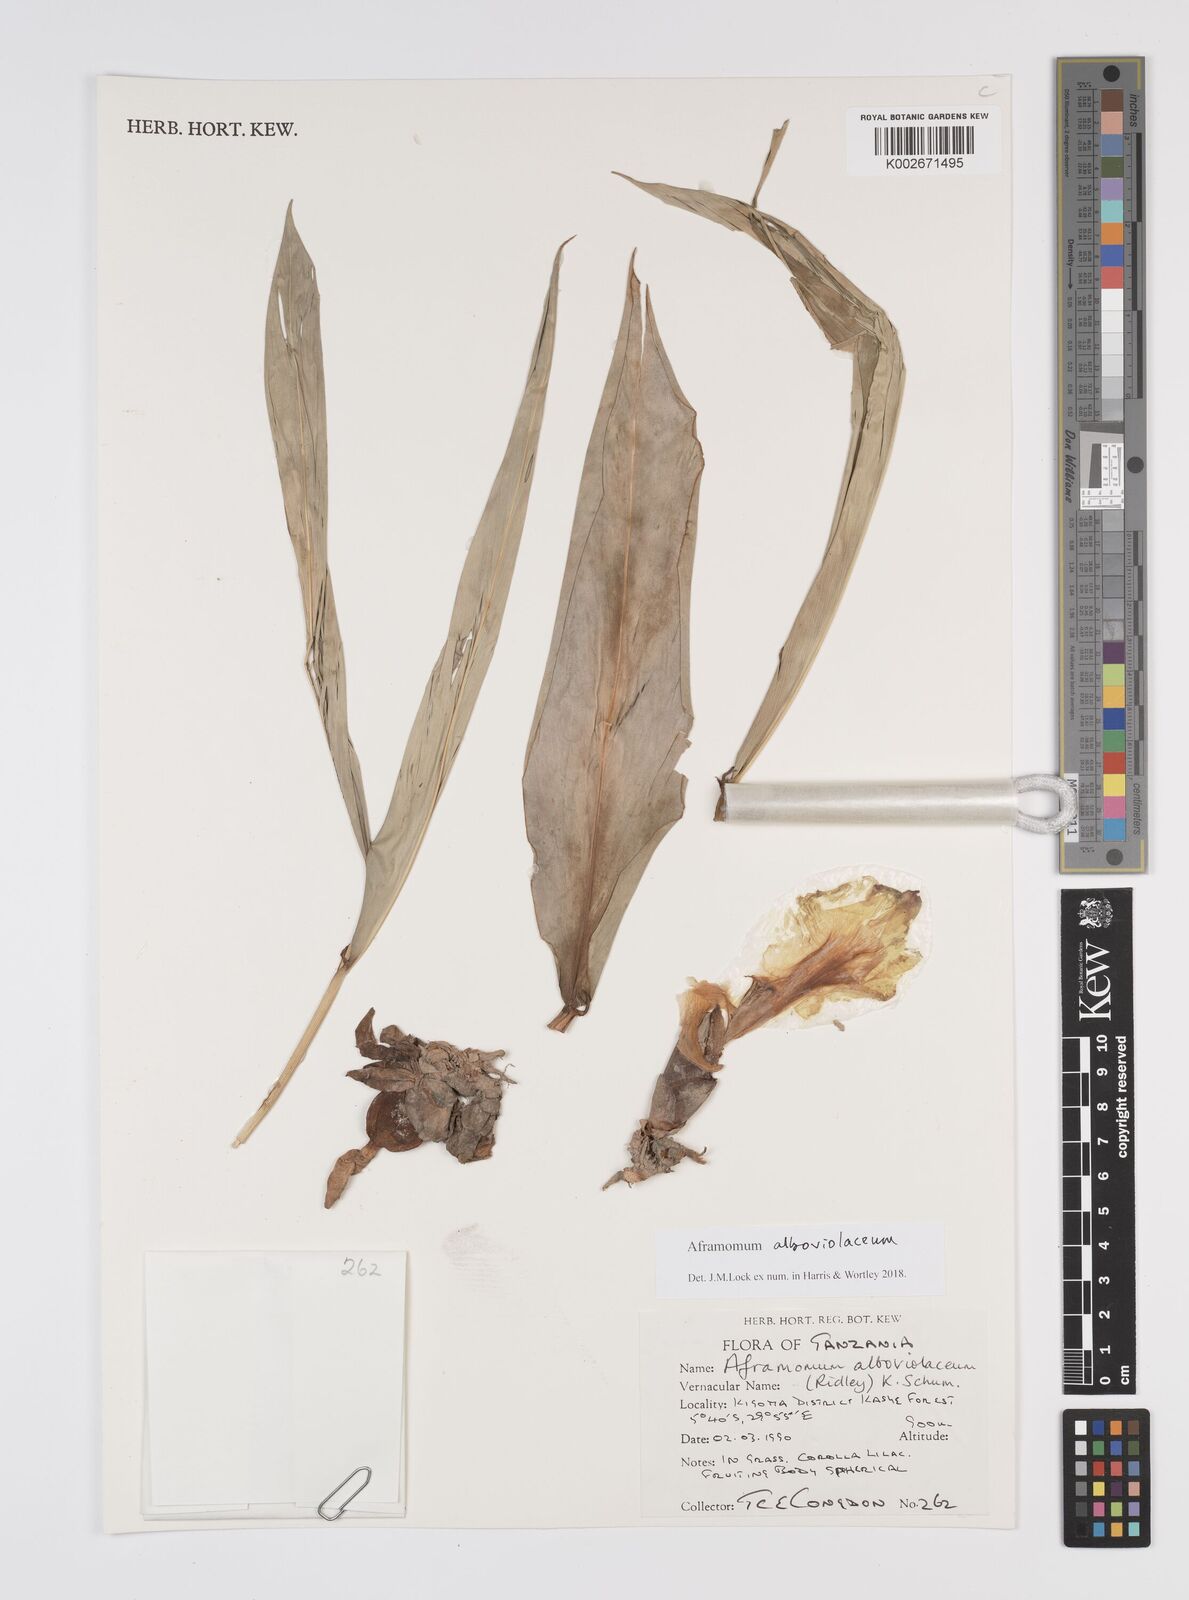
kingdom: Plantae
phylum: Tracheophyta
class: Liliopsida
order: Zingiberales
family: Zingiberaceae
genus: Aframomum
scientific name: Aframomum alboviolaceum
